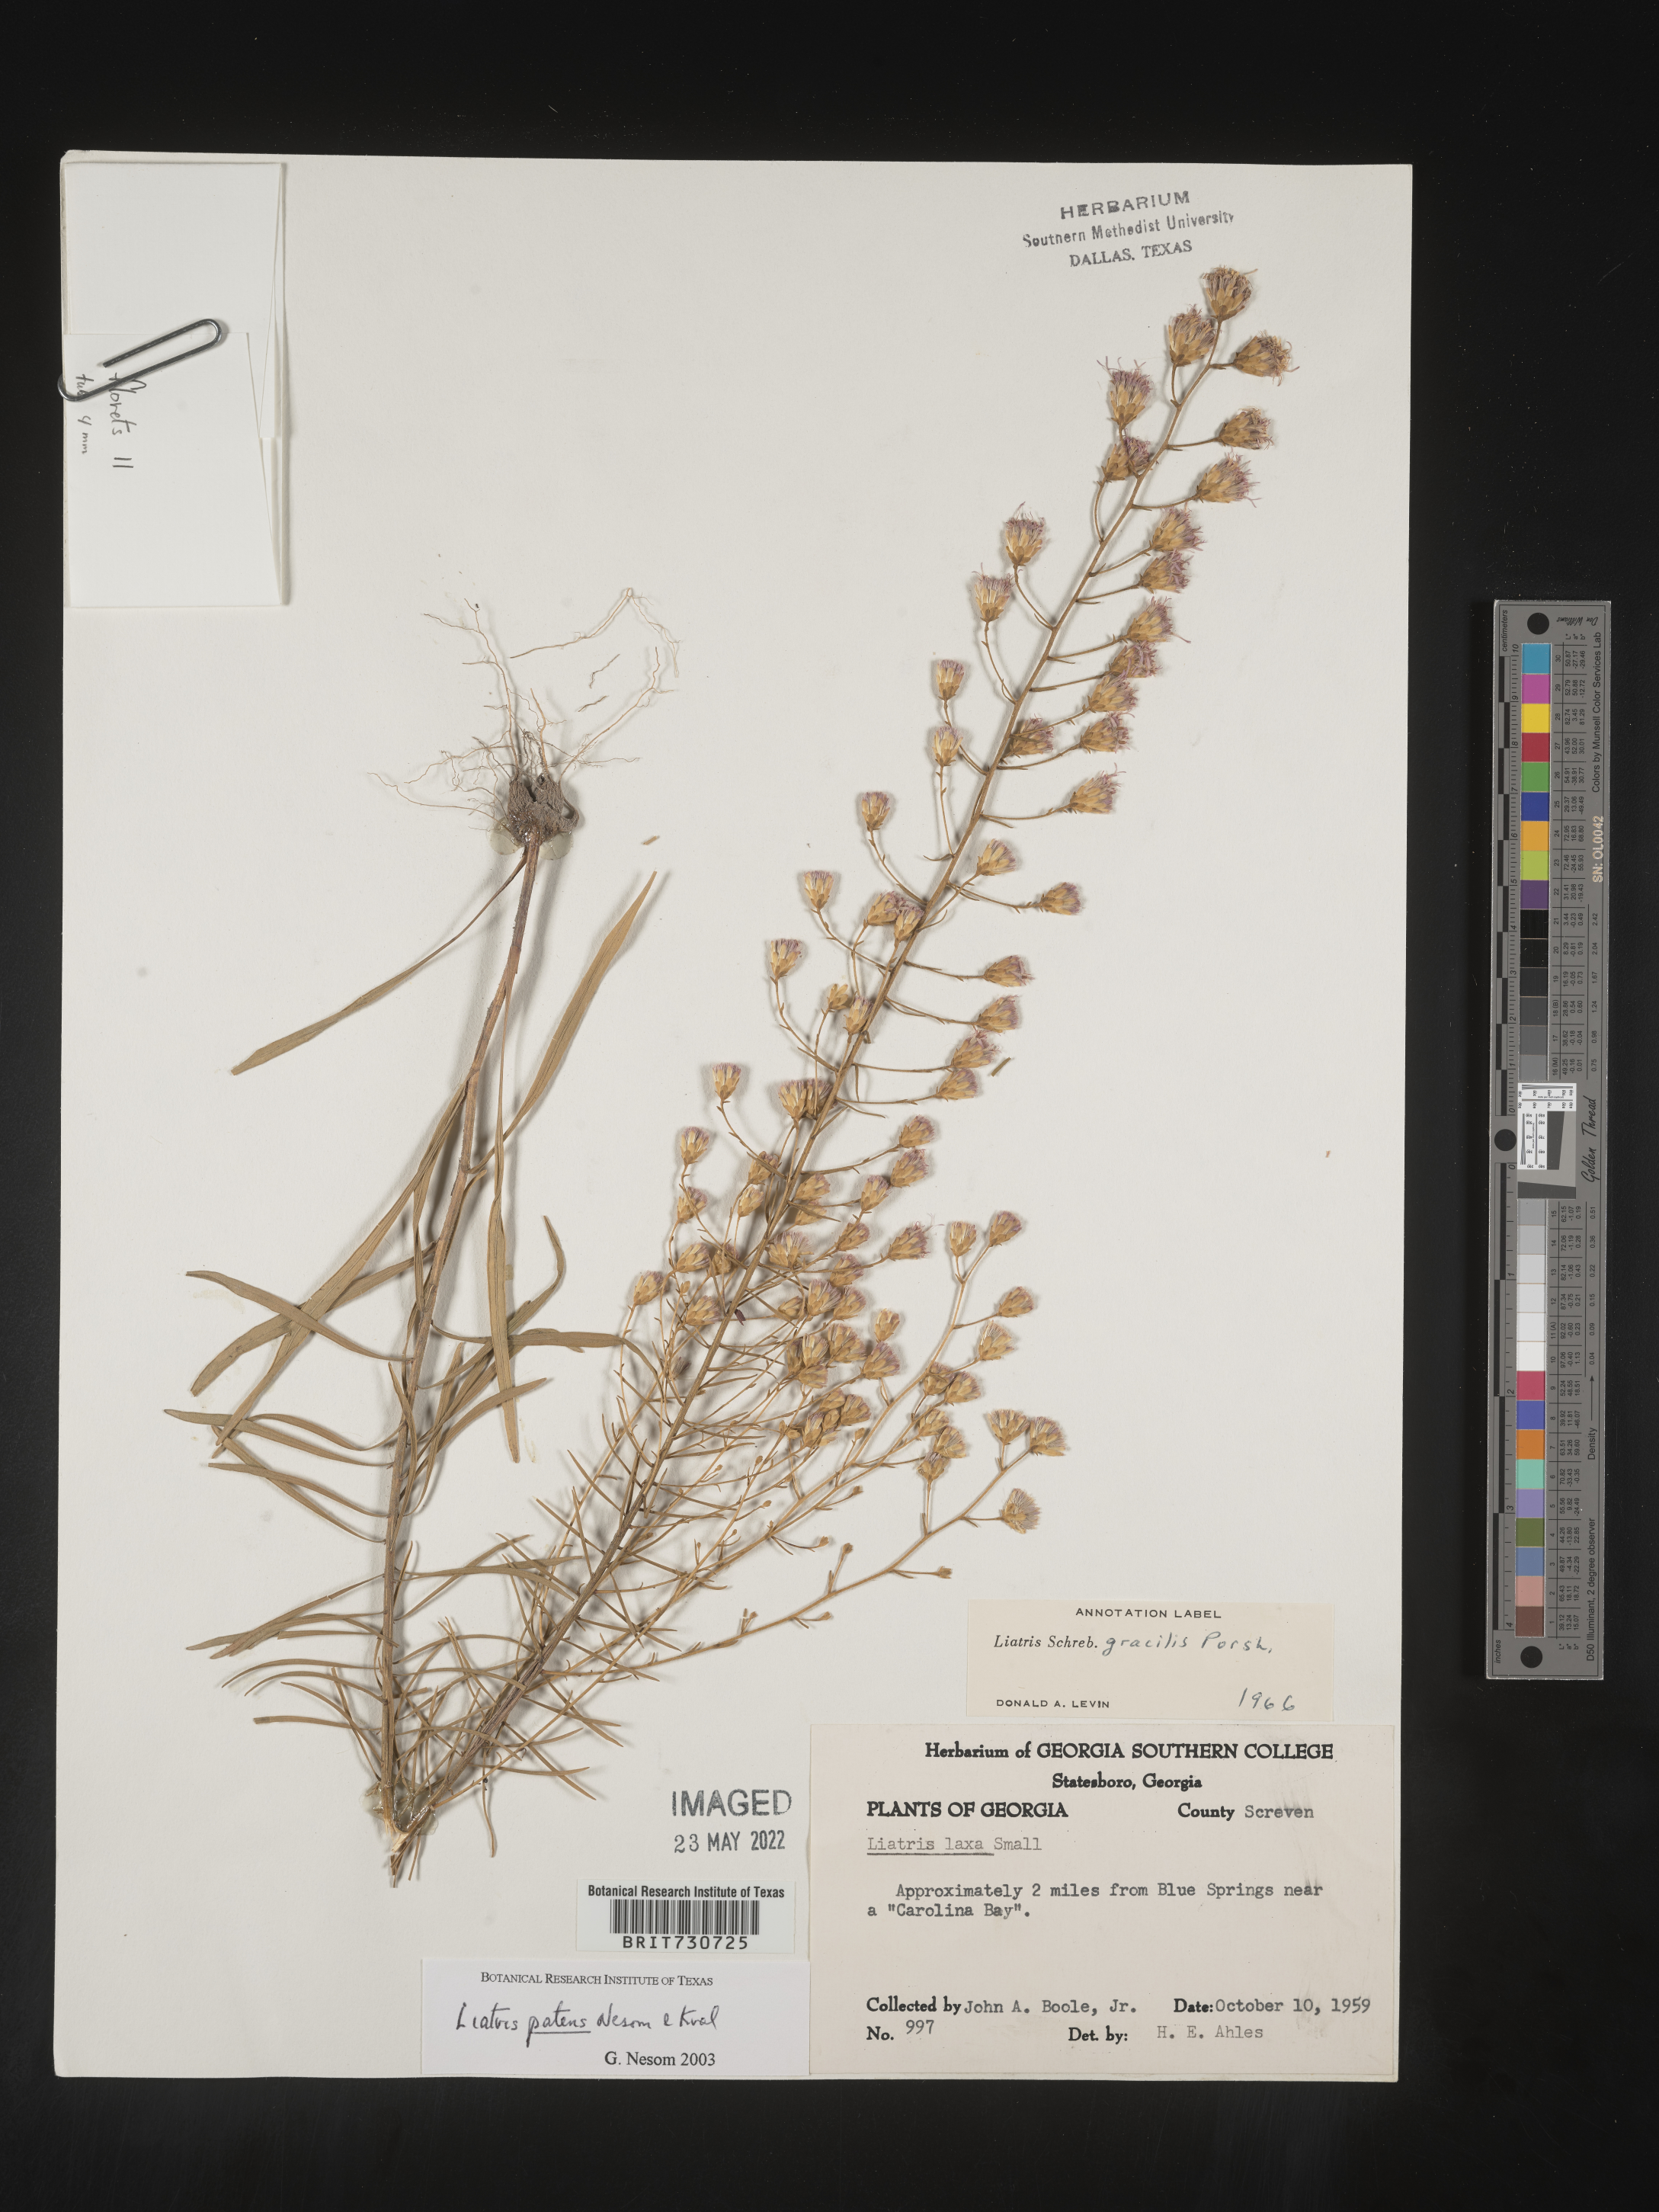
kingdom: Plantae
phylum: Tracheophyta
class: Magnoliopsida
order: Asterales
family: Asteraceae
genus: Liatris
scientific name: Liatris patens
